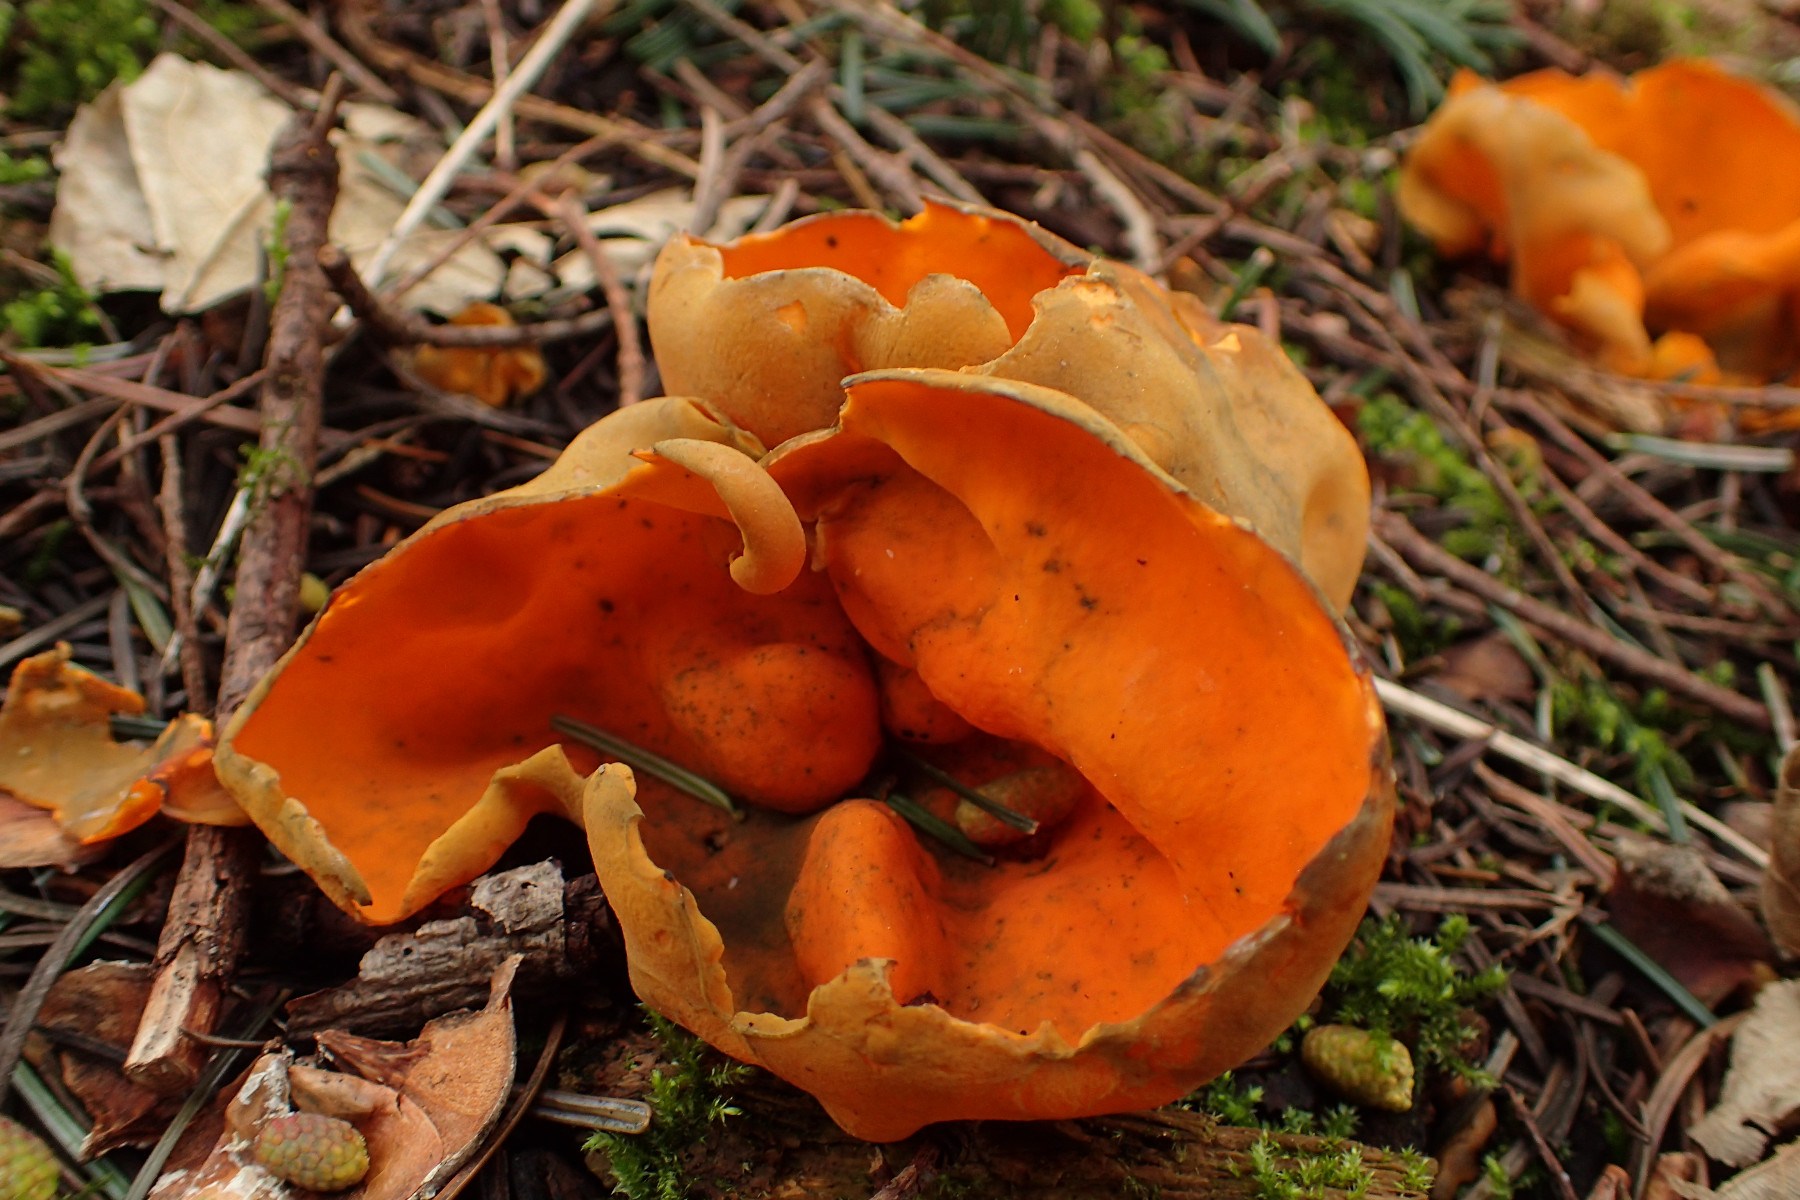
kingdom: Fungi
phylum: Ascomycota
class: Pezizomycetes
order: Pezizales
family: Caloscyphaceae
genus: Caloscypha
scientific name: Caloscypha fulgens
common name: jadebæger
